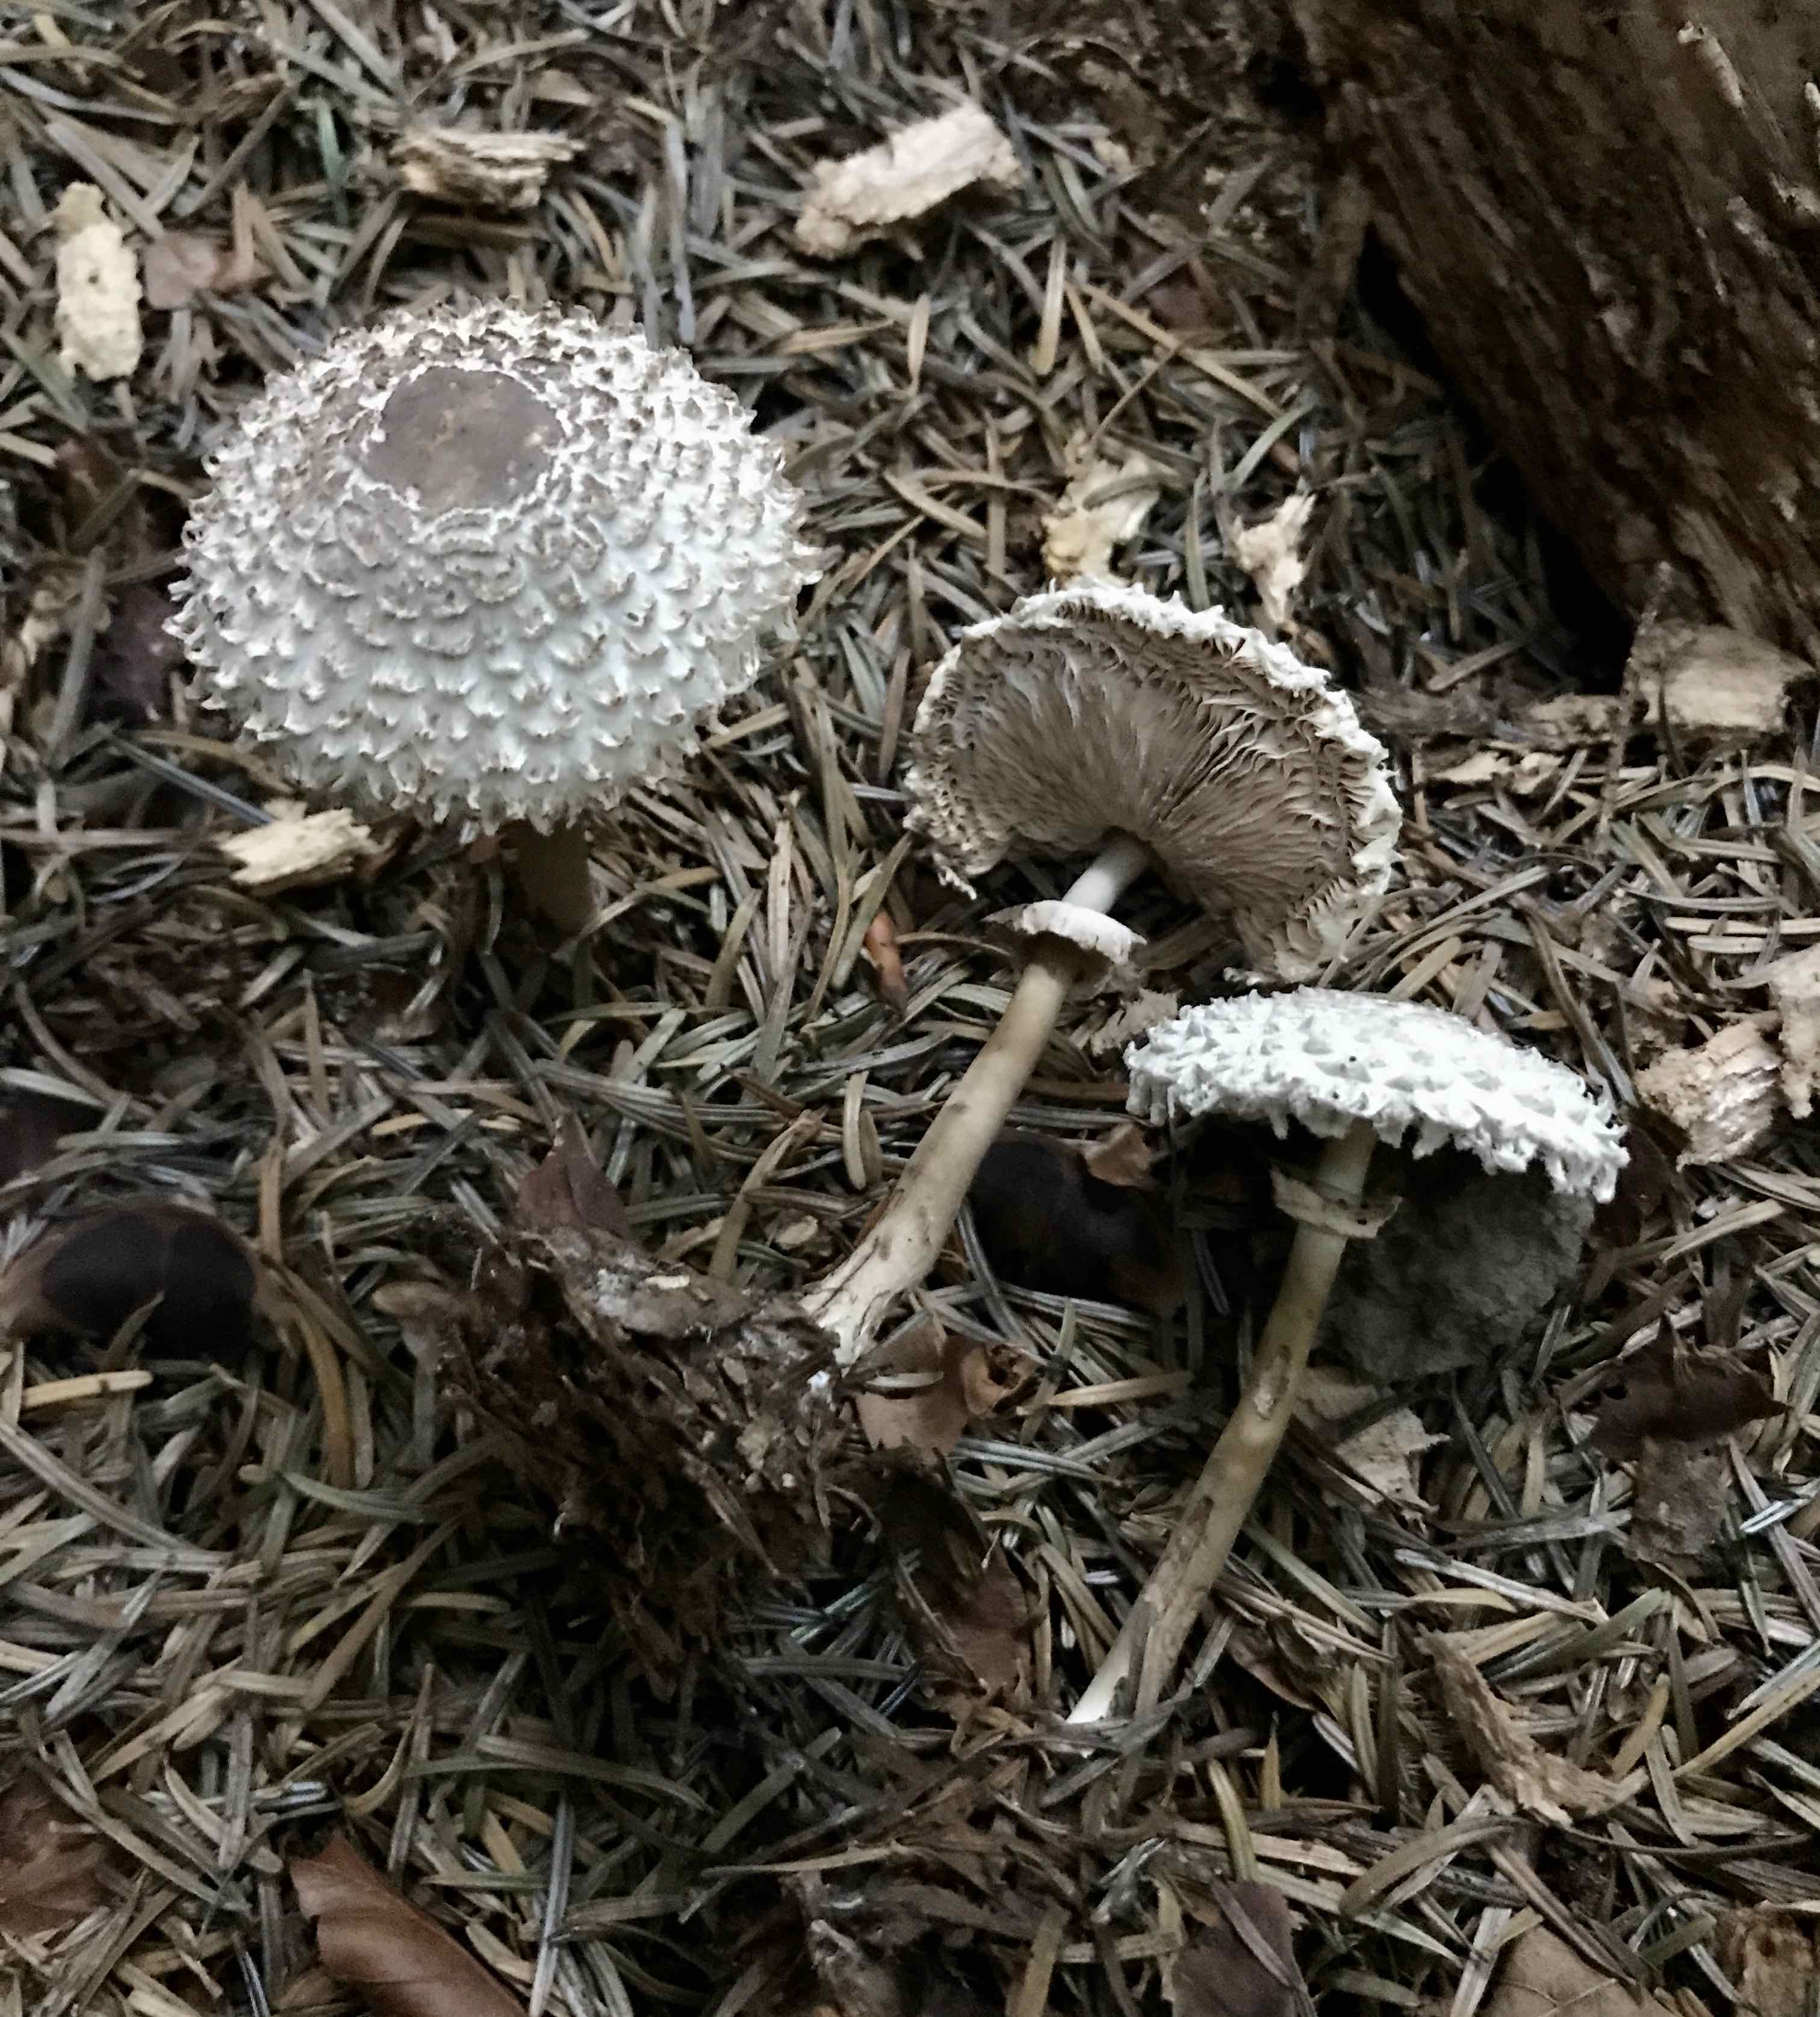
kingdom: Fungi
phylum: Basidiomycota
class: Agaricomycetes
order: Agaricales
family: Agaricaceae
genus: Leucoagaricus
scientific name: Leucoagaricus nympharum
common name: gran-silkehat
